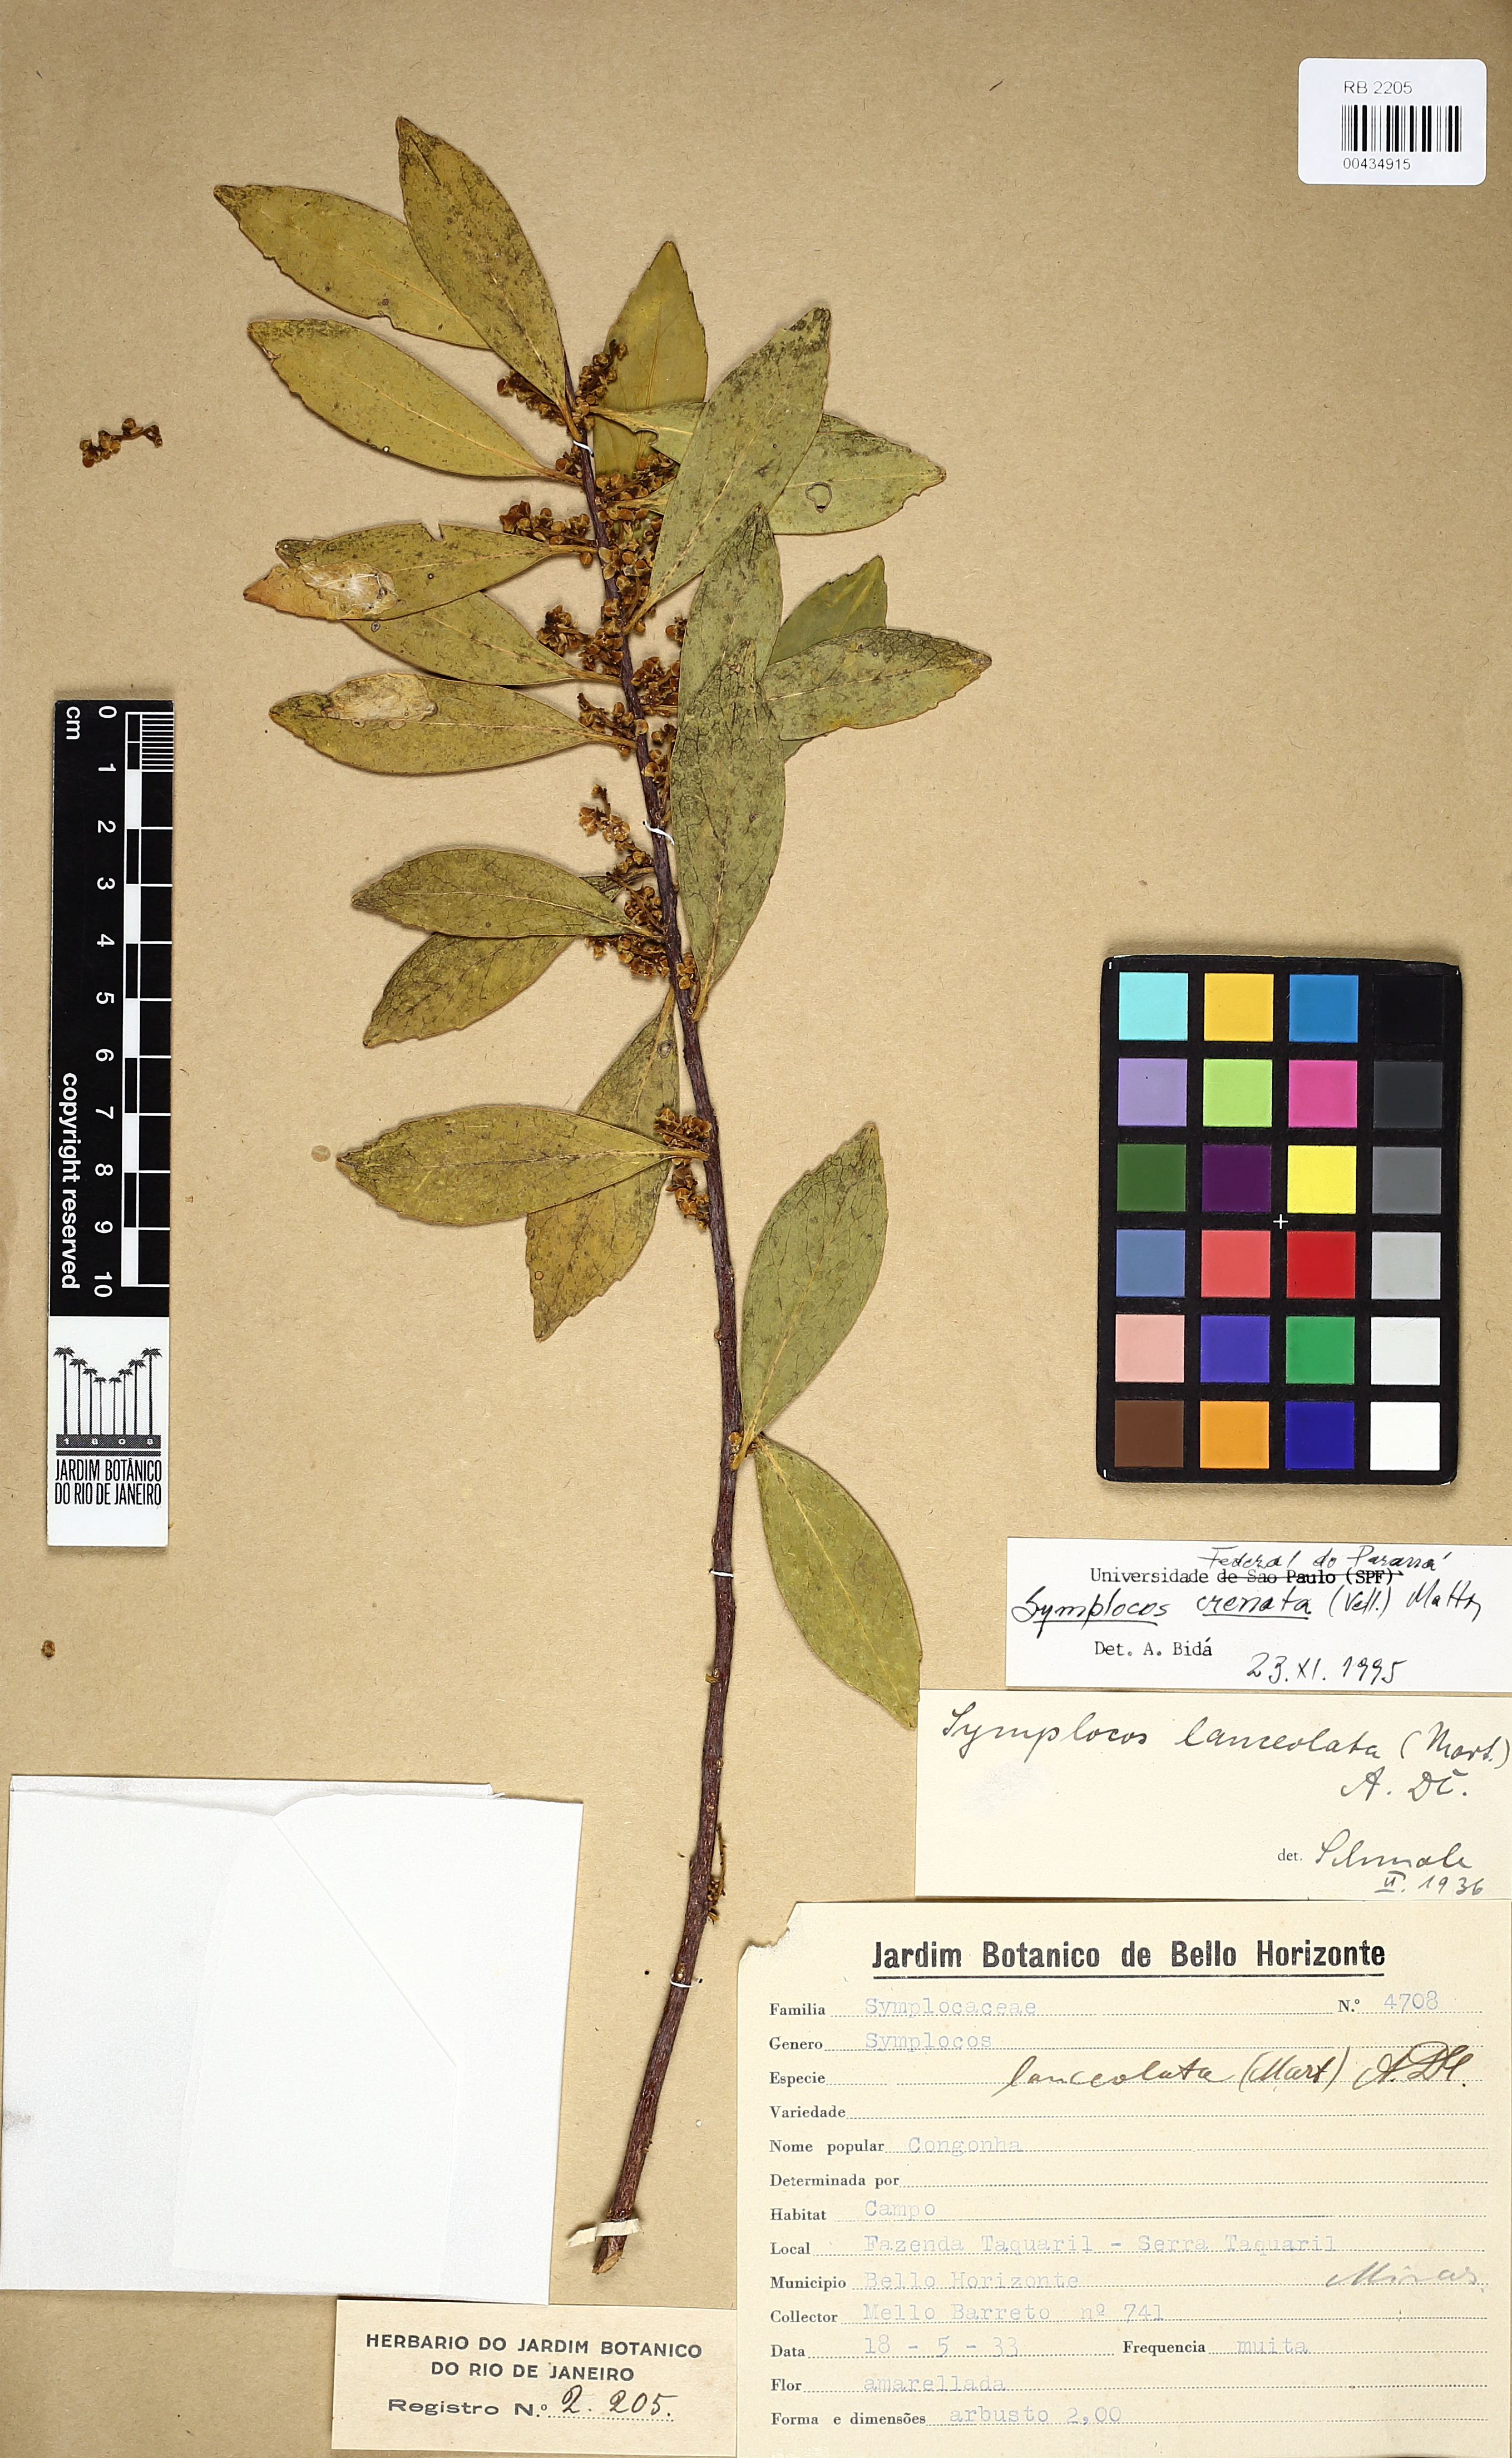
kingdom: Plantae
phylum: Tracheophyta
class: Magnoliopsida
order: Ericales
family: Symplocaceae
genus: Symplocos
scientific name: Symplocos oblongifolia
